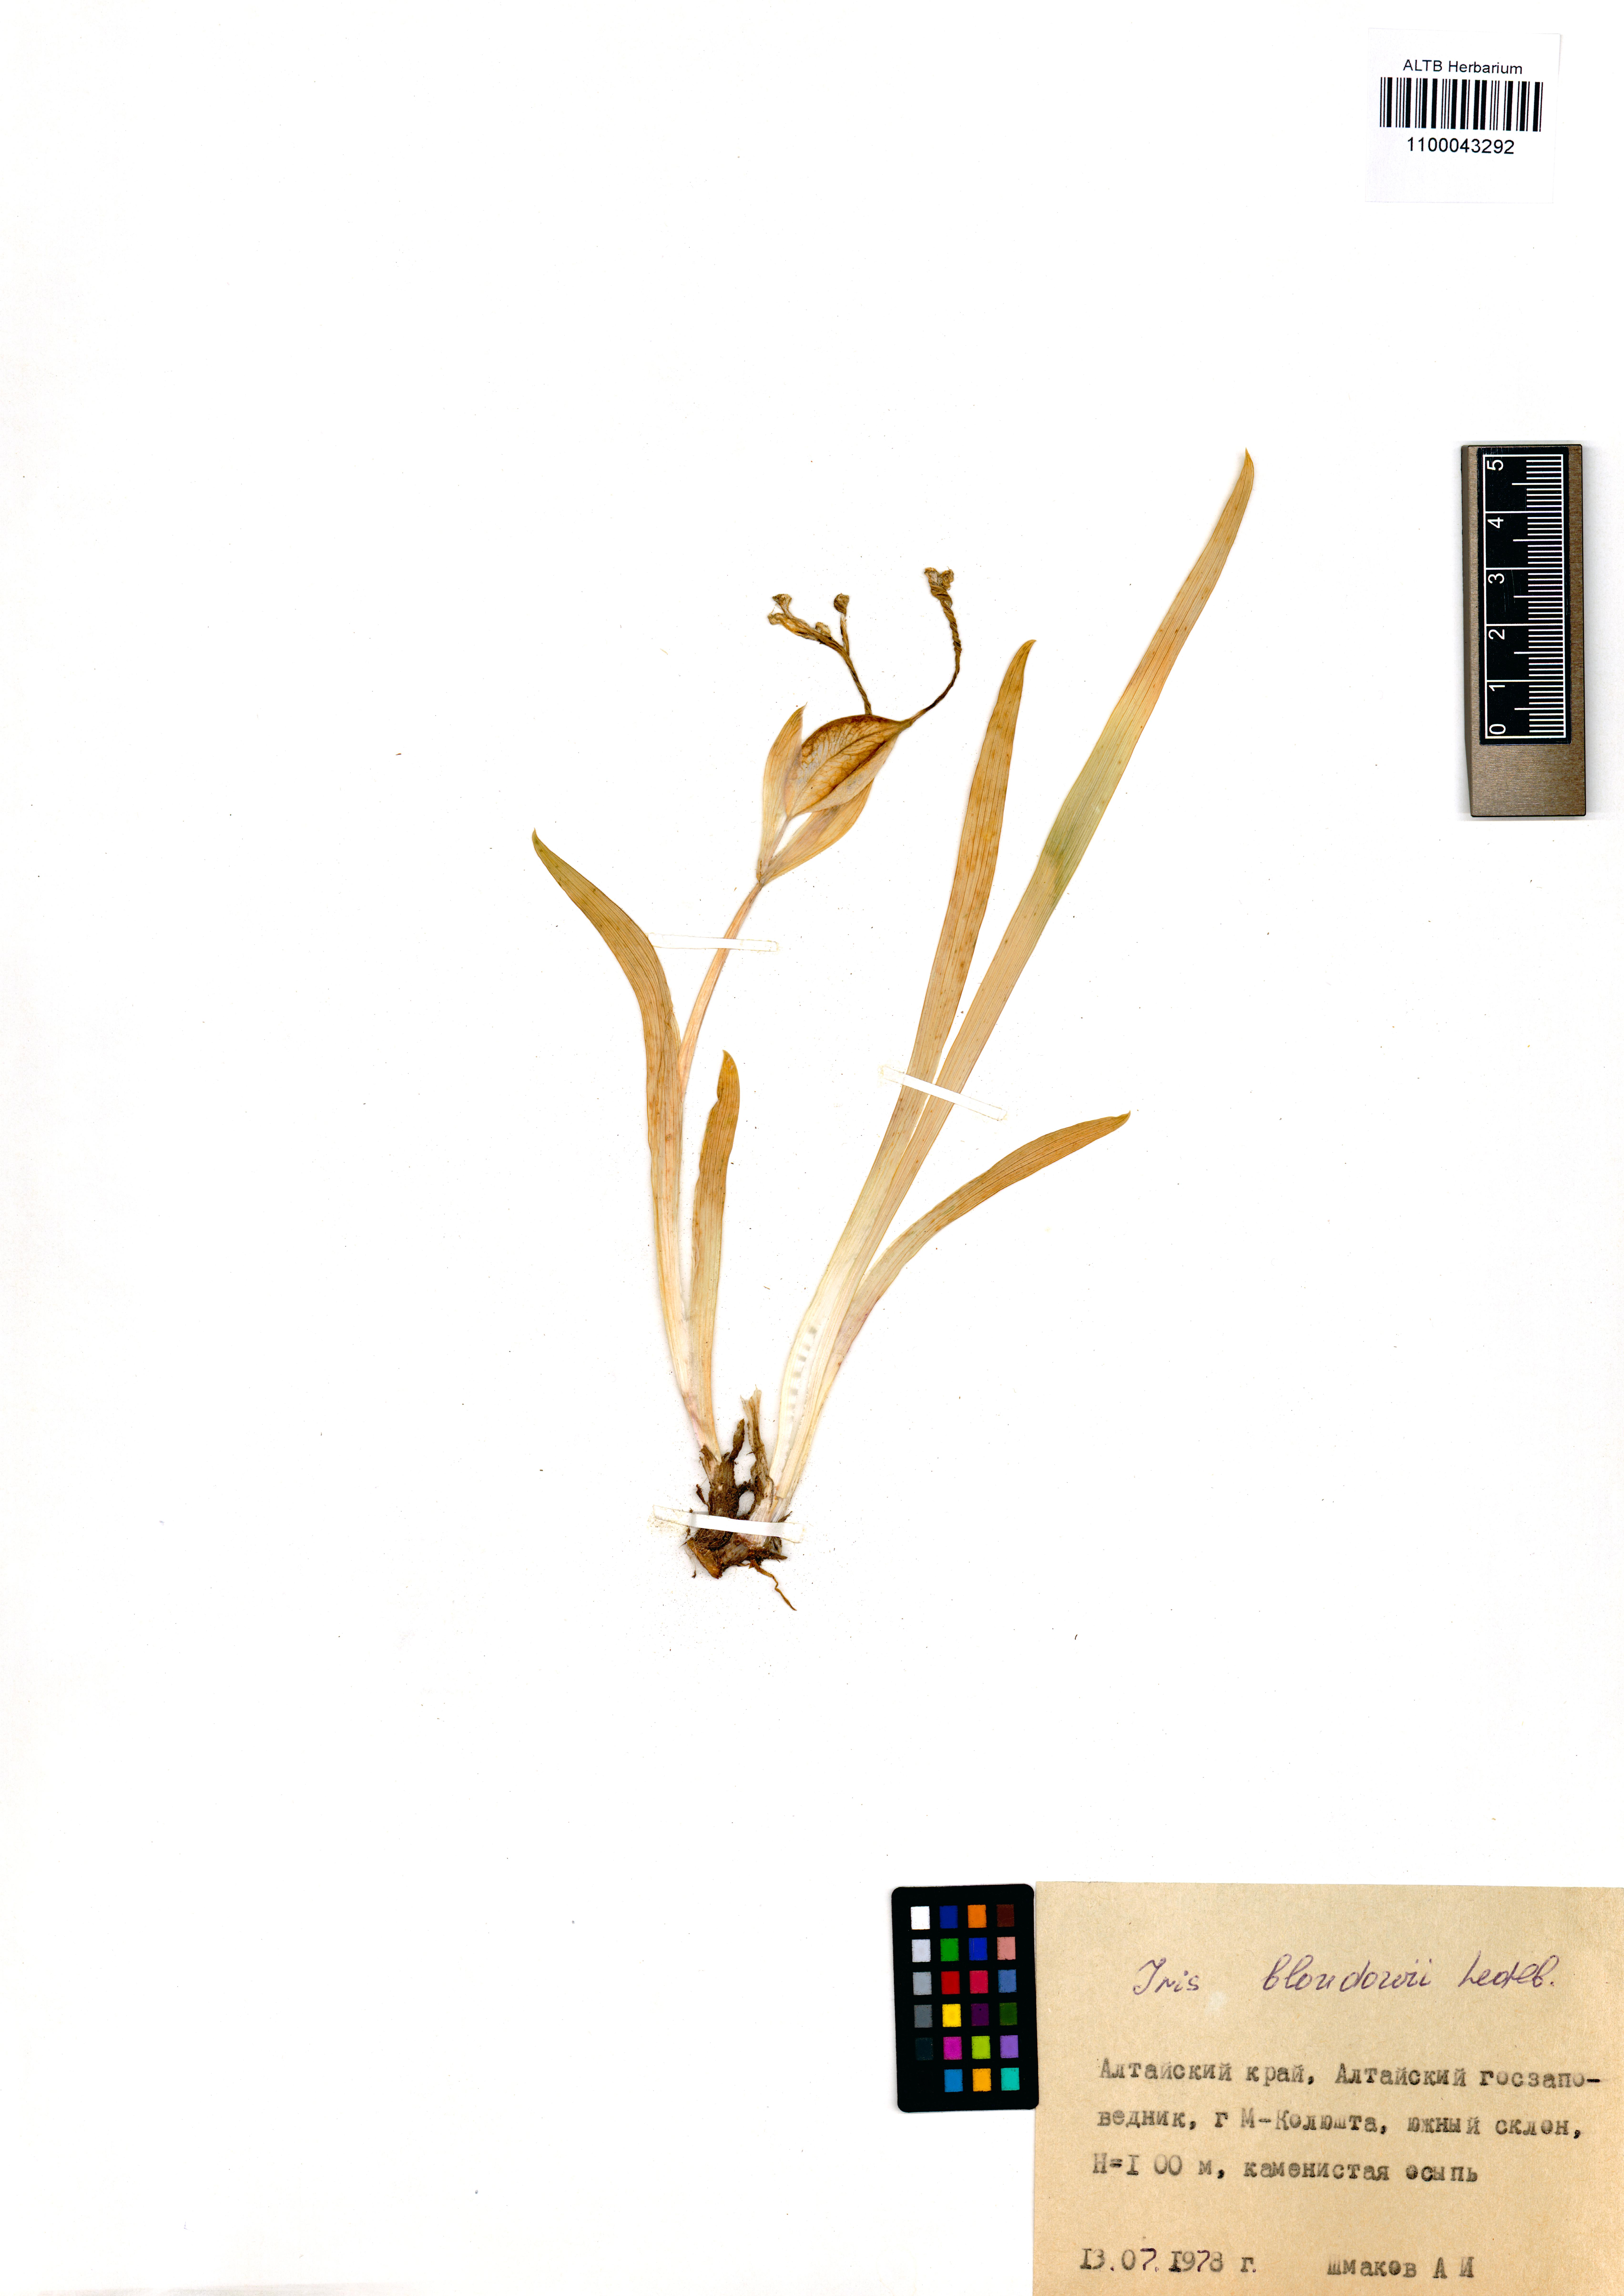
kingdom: Plantae
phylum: Tracheophyta
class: Liliopsida
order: Asparagales
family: Iridaceae
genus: Iris
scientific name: Iris bloudowii
